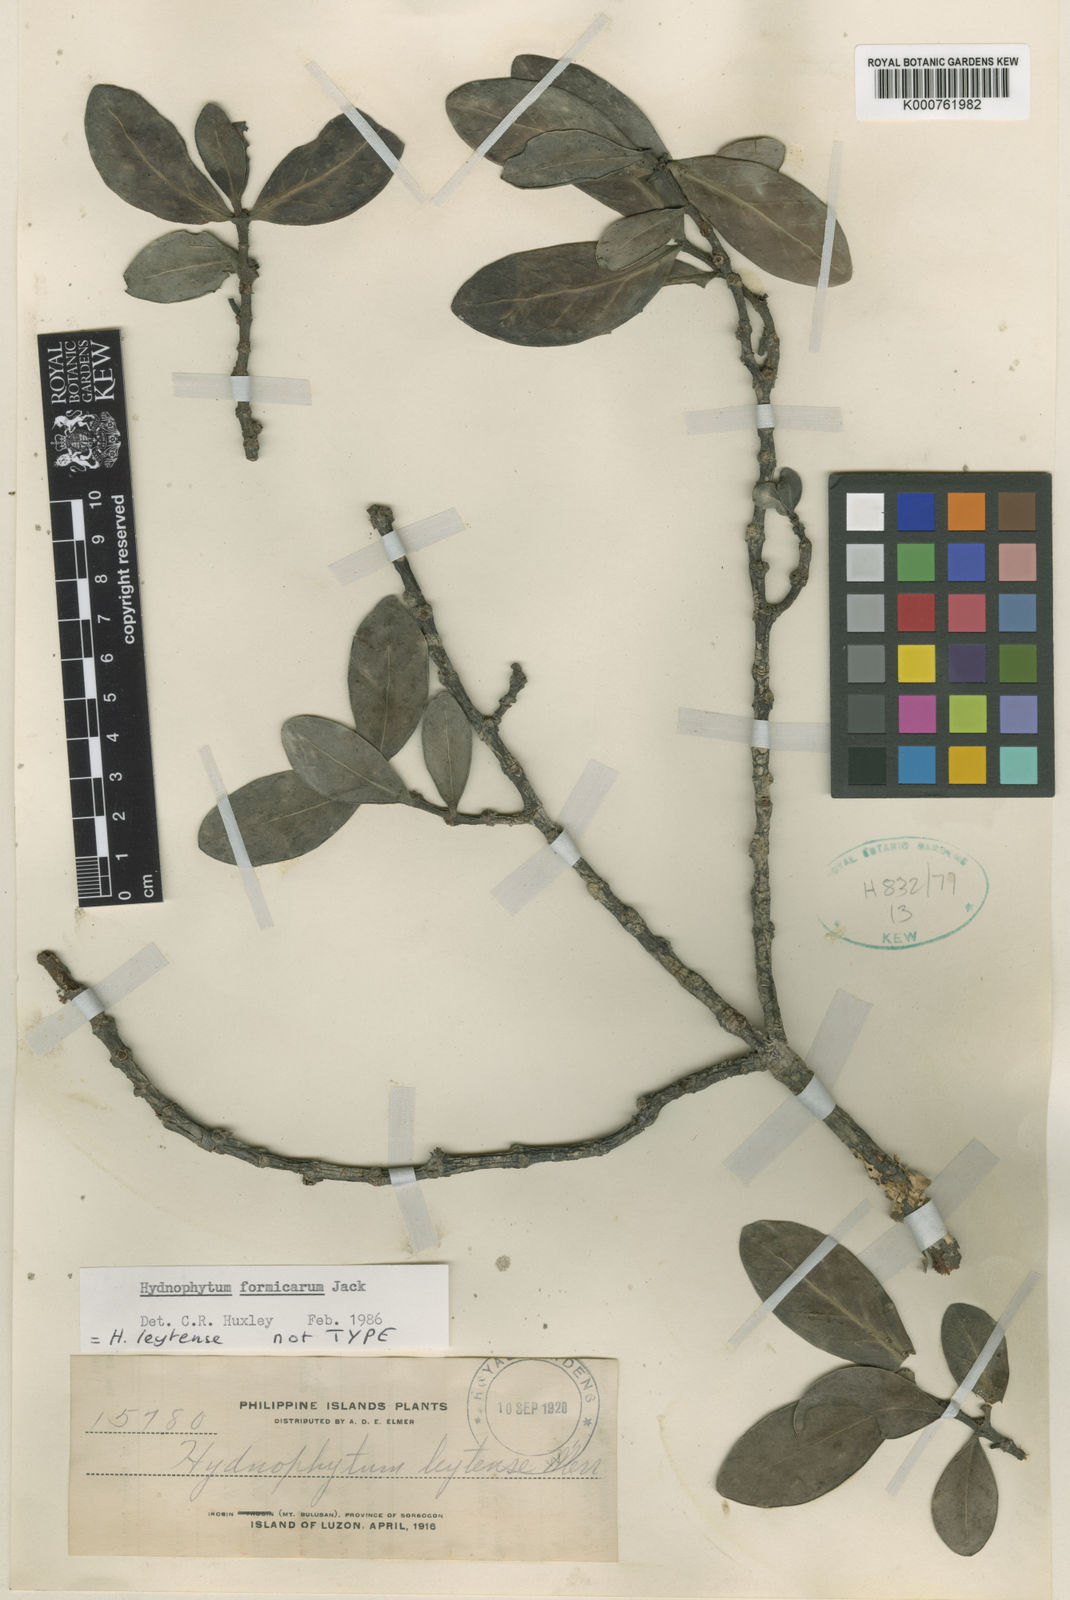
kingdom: Plantae
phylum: Tracheophyta
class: Magnoliopsida
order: Gentianales
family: Rubiaceae
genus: Hydnophytum
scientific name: Hydnophytum formicarum
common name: Ant plant
